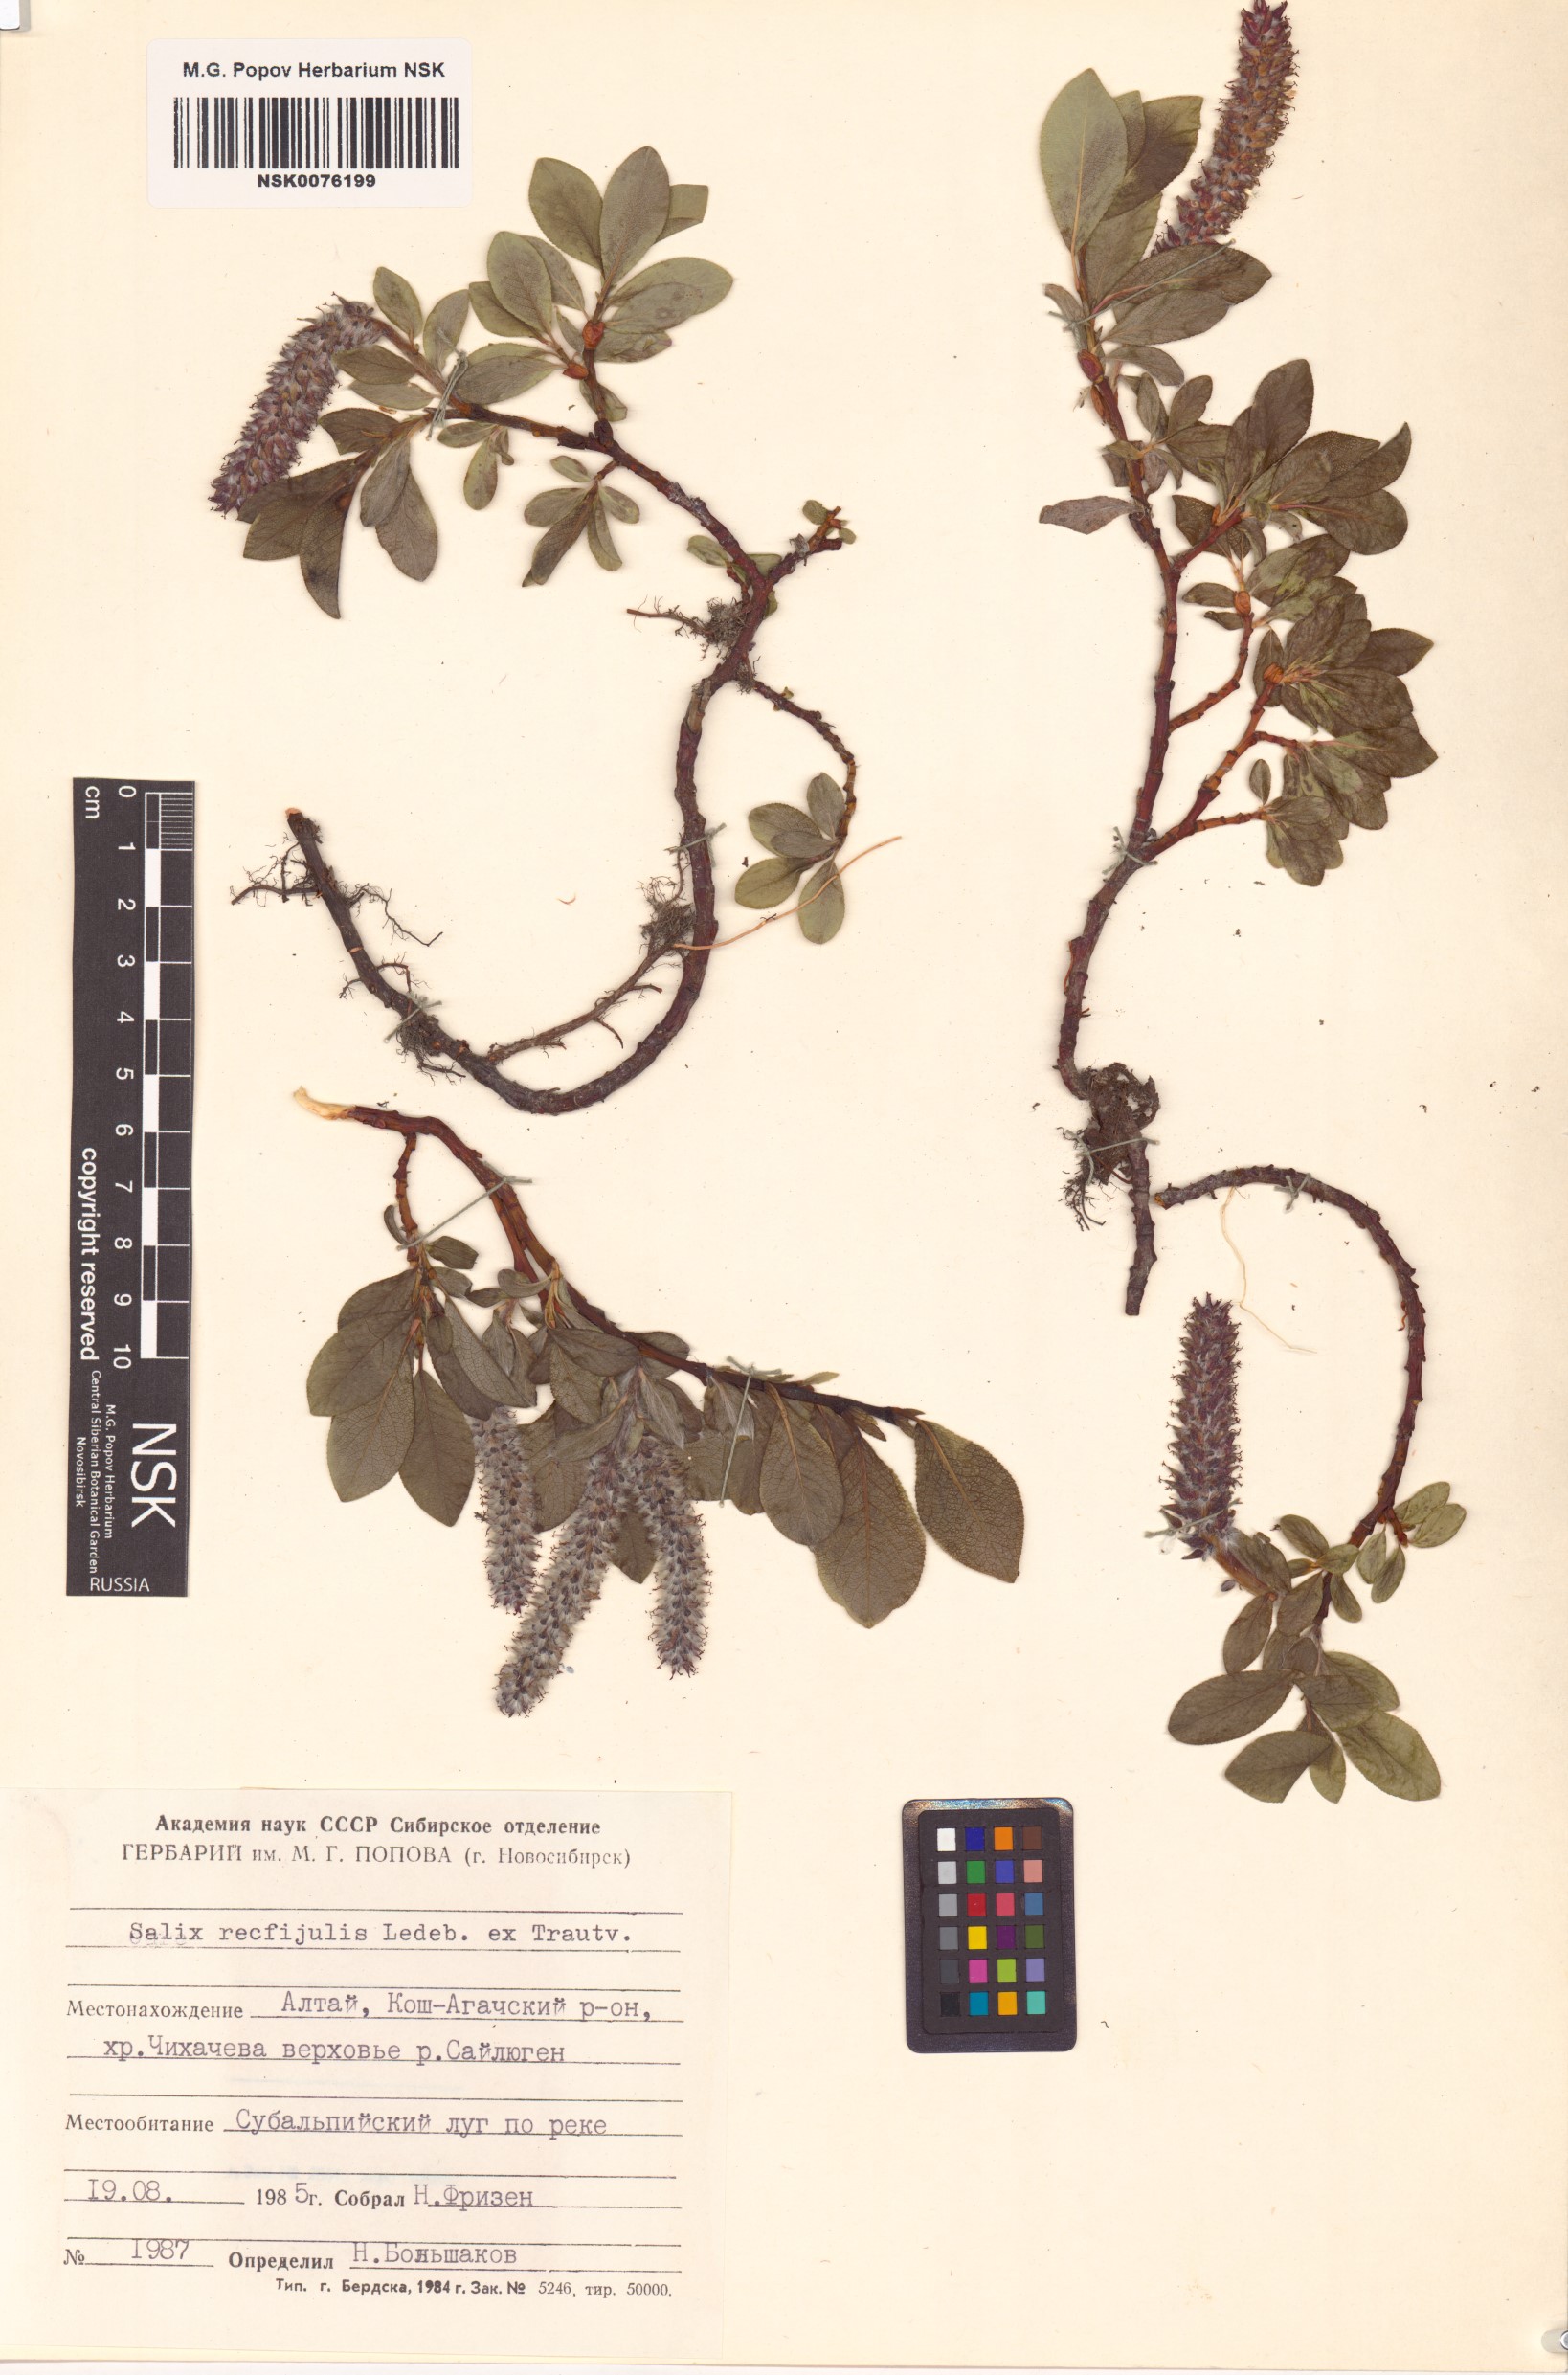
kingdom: Plantae
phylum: Tracheophyta
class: Magnoliopsida
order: Malpighiales
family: Salicaceae
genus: Salix
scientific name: Salix rectijulis
